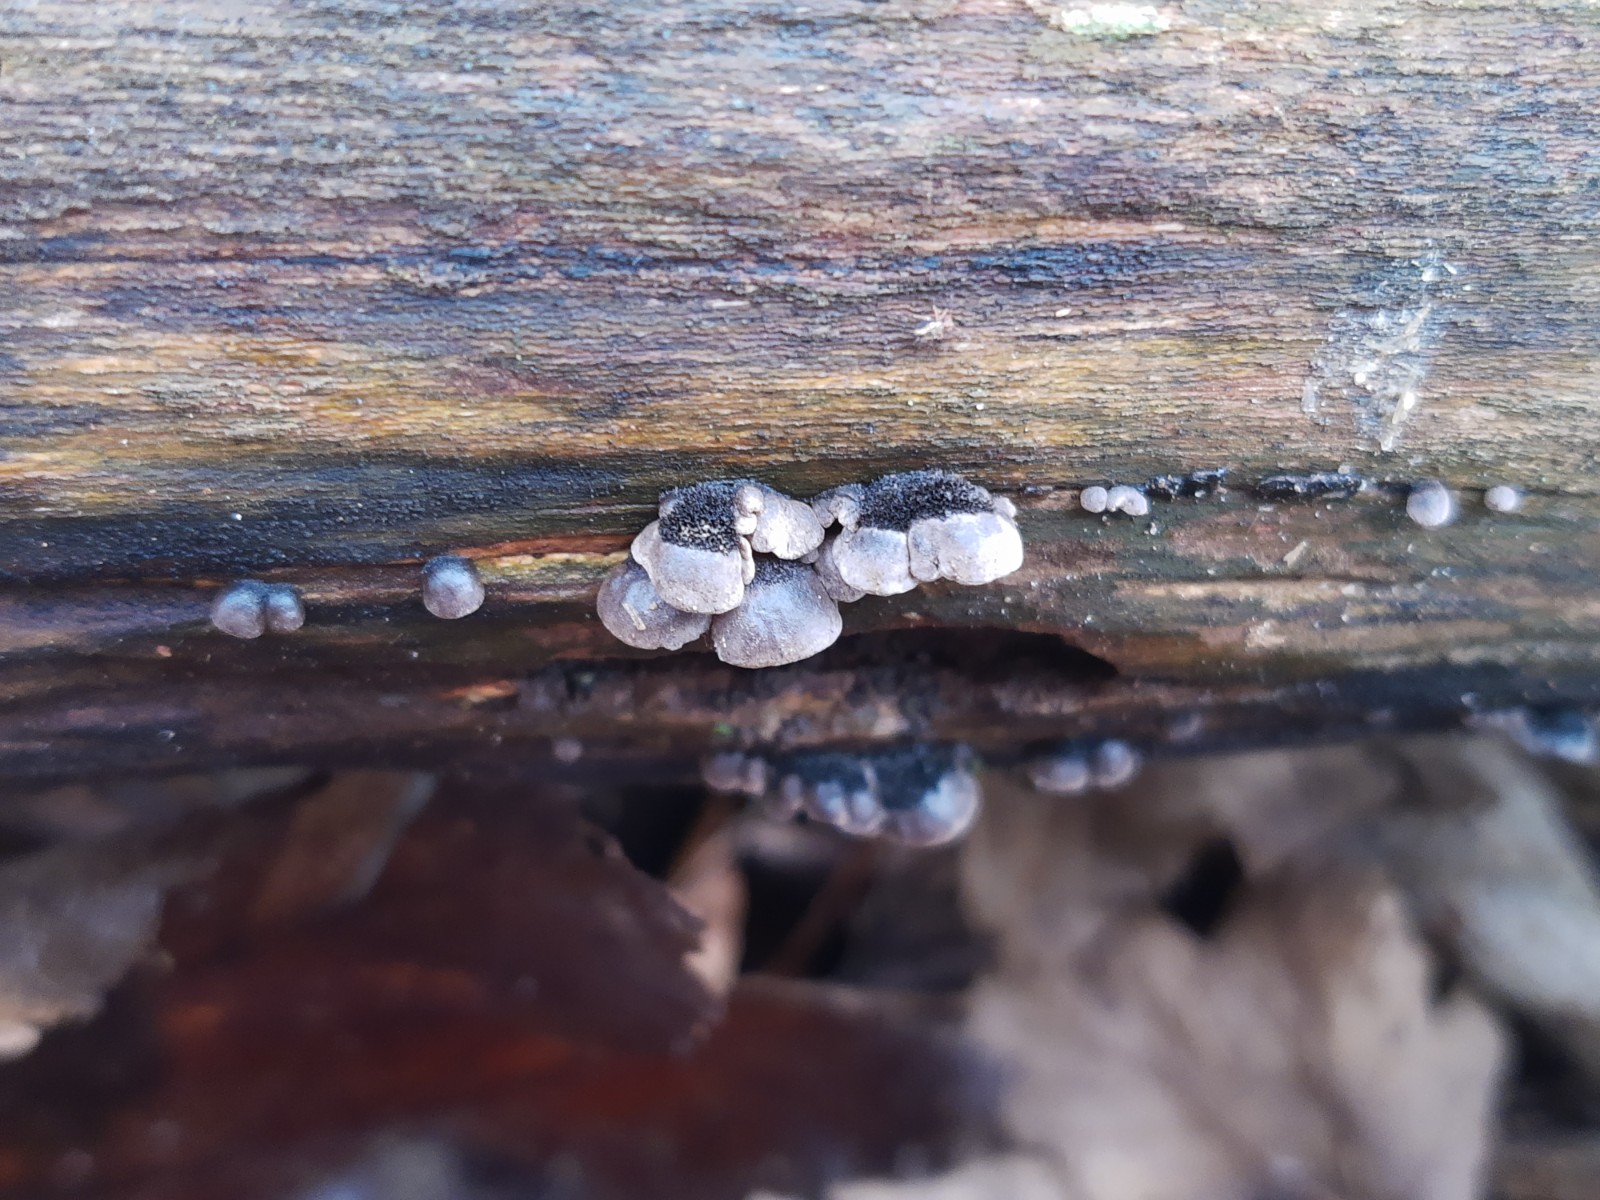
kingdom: Fungi
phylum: Basidiomycota
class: Agaricomycetes
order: Agaricales
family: Pleurotaceae
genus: Resupinatus
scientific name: Resupinatus trichotis
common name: mørkfiltet barkhat
